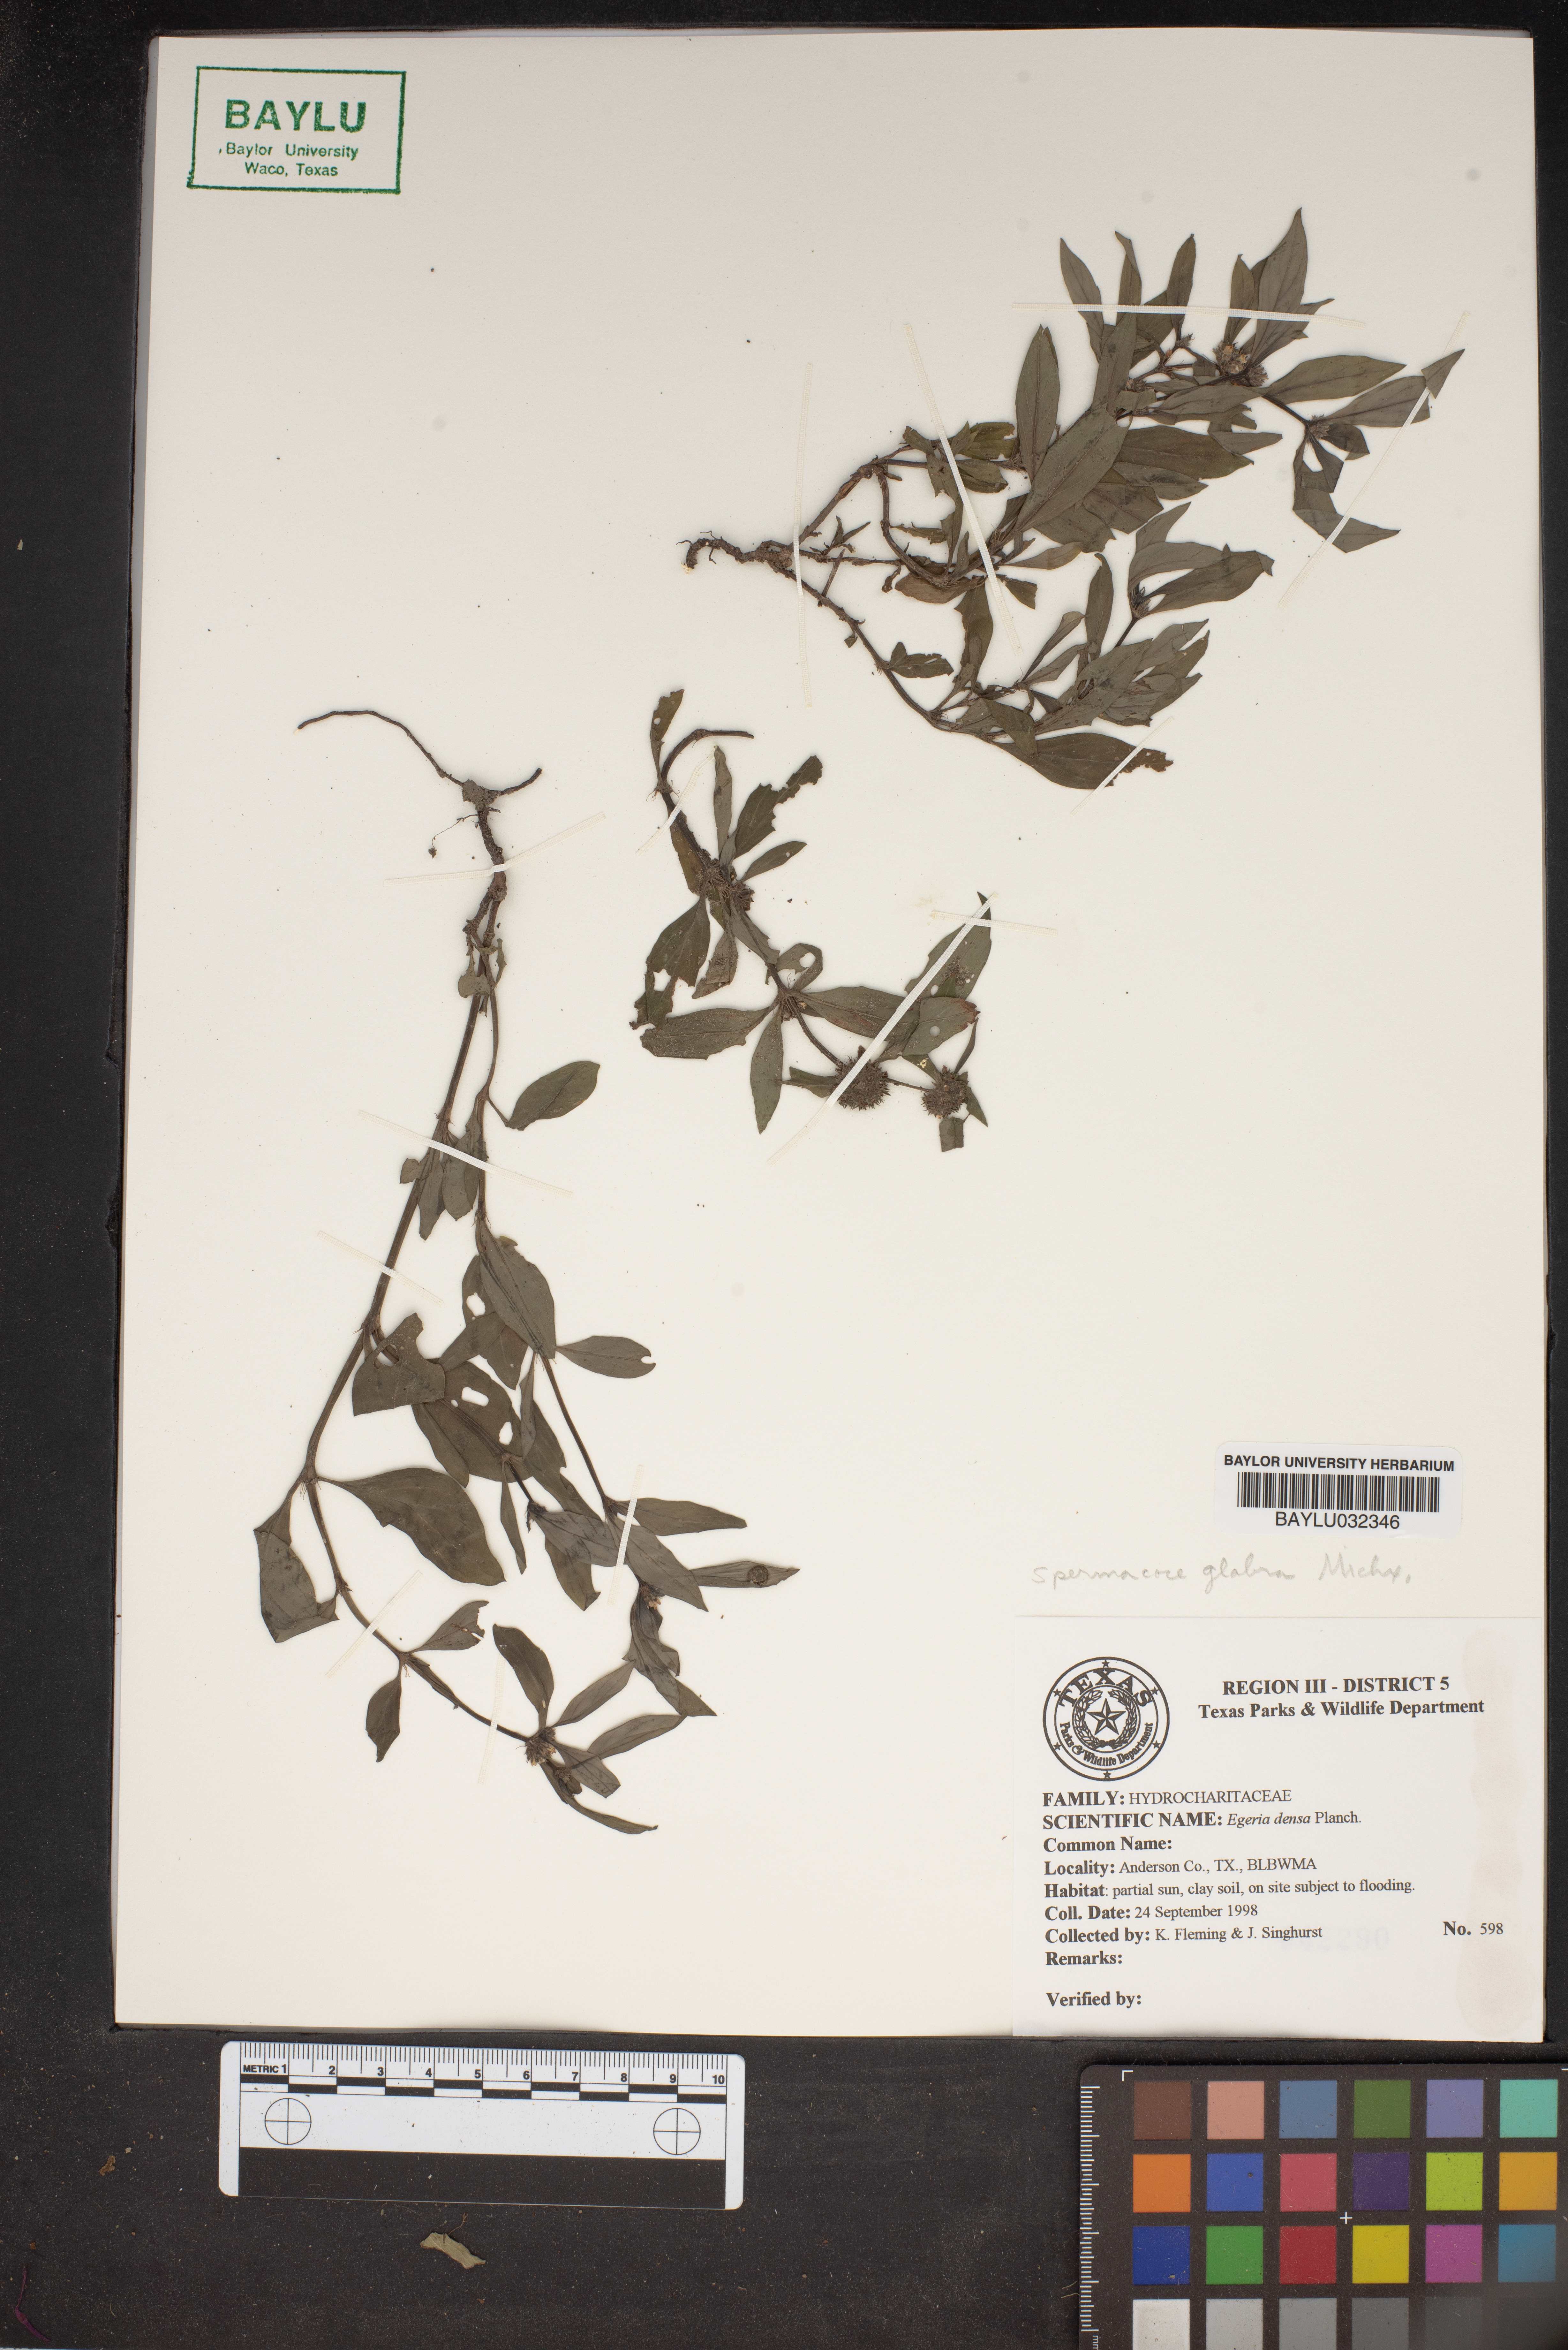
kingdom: Plantae
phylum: Tracheophyta
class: Liliopsida
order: Alismatales
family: Hydrocharitaceae
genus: Elodea
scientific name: Elodea densa
